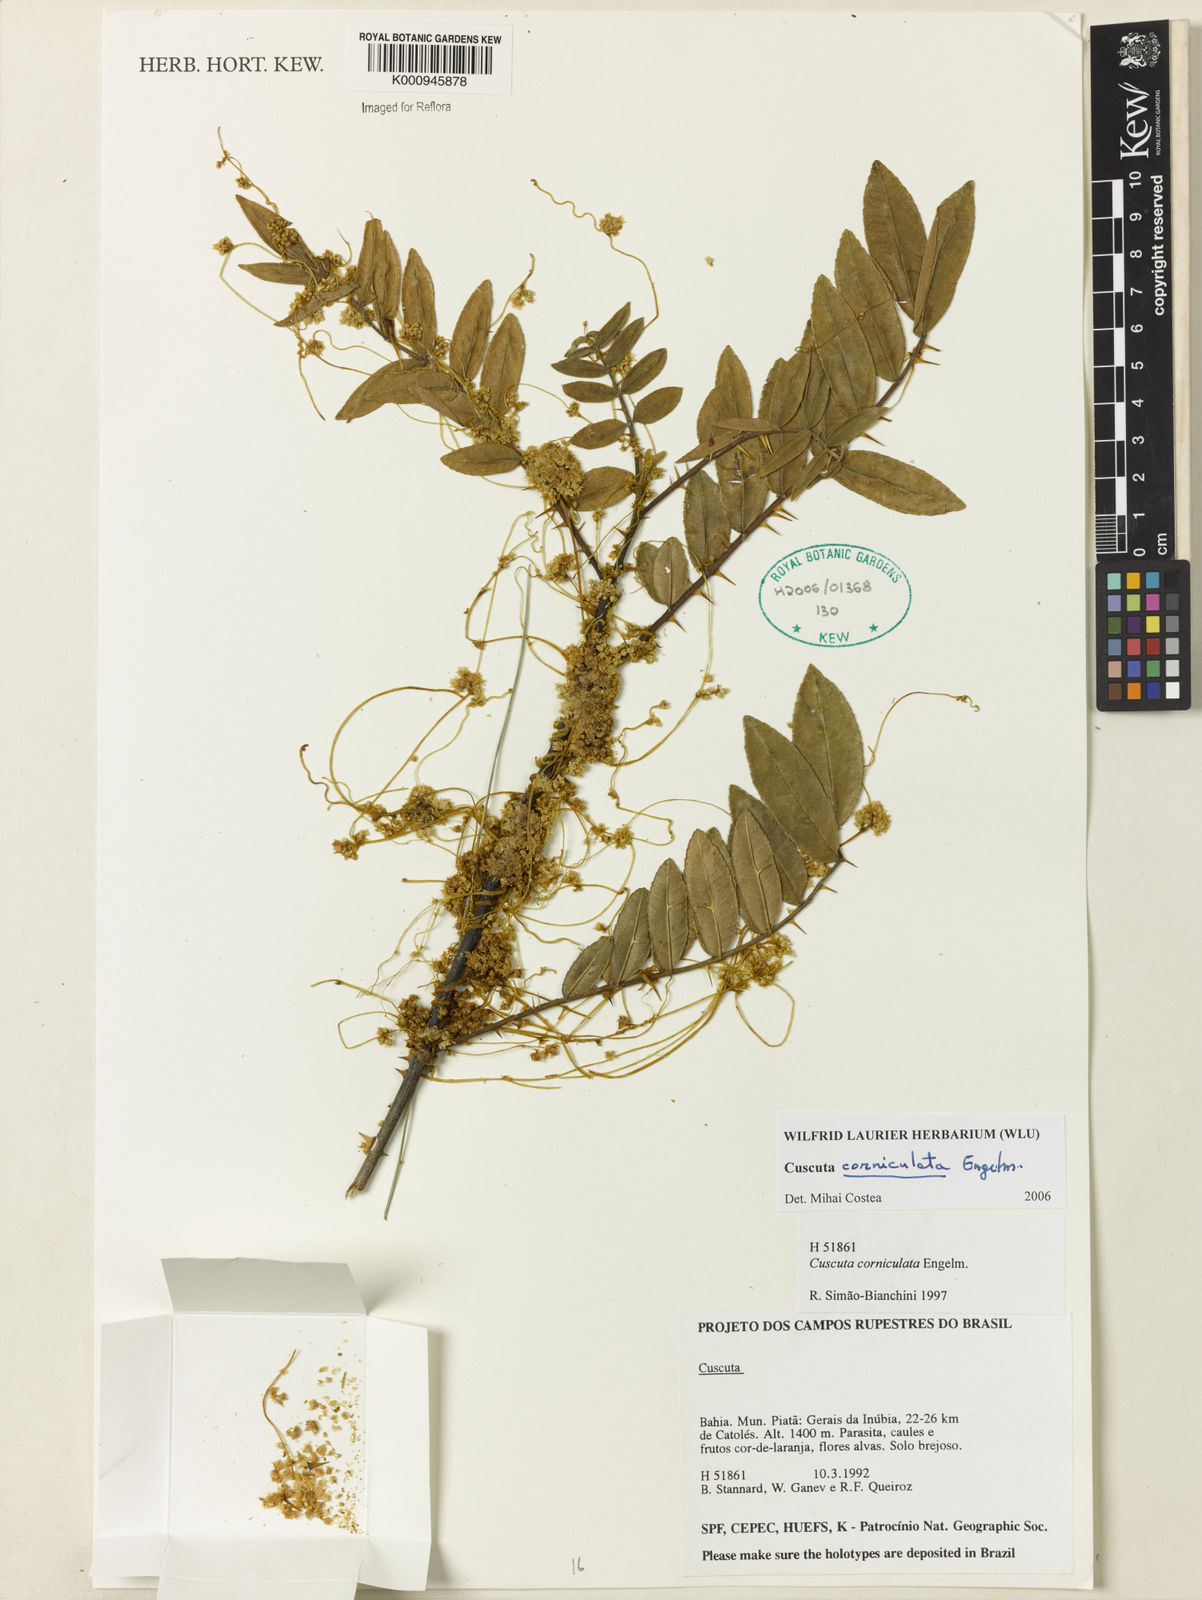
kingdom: Plantae
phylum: Tracheophyta
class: Magnoliopsida
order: Solanales
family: Convolvulaceae
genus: Cuscuta
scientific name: Cuscuta corniculata
